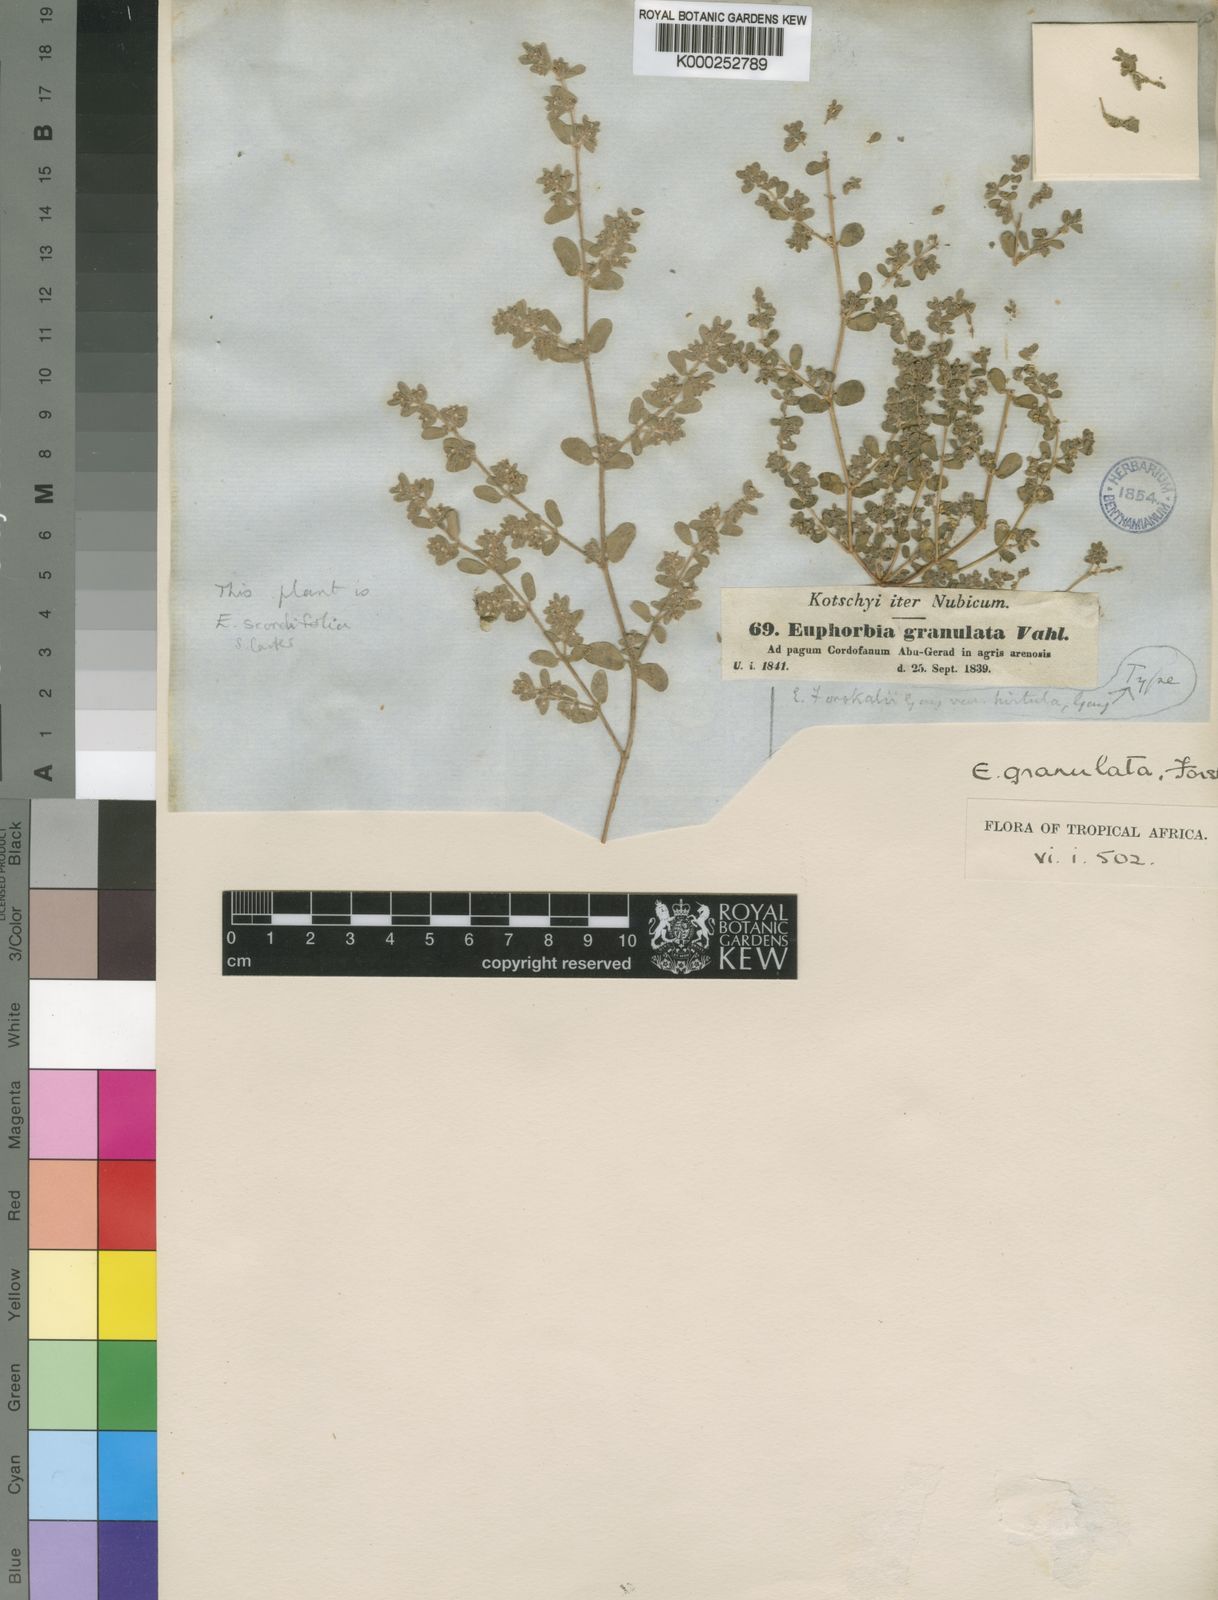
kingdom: Plantae
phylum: Tracheophyta
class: Magnoliopsida
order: Malpighiales
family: Euphorbiaceae
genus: Euphorbia
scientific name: Euphorbia granulata
